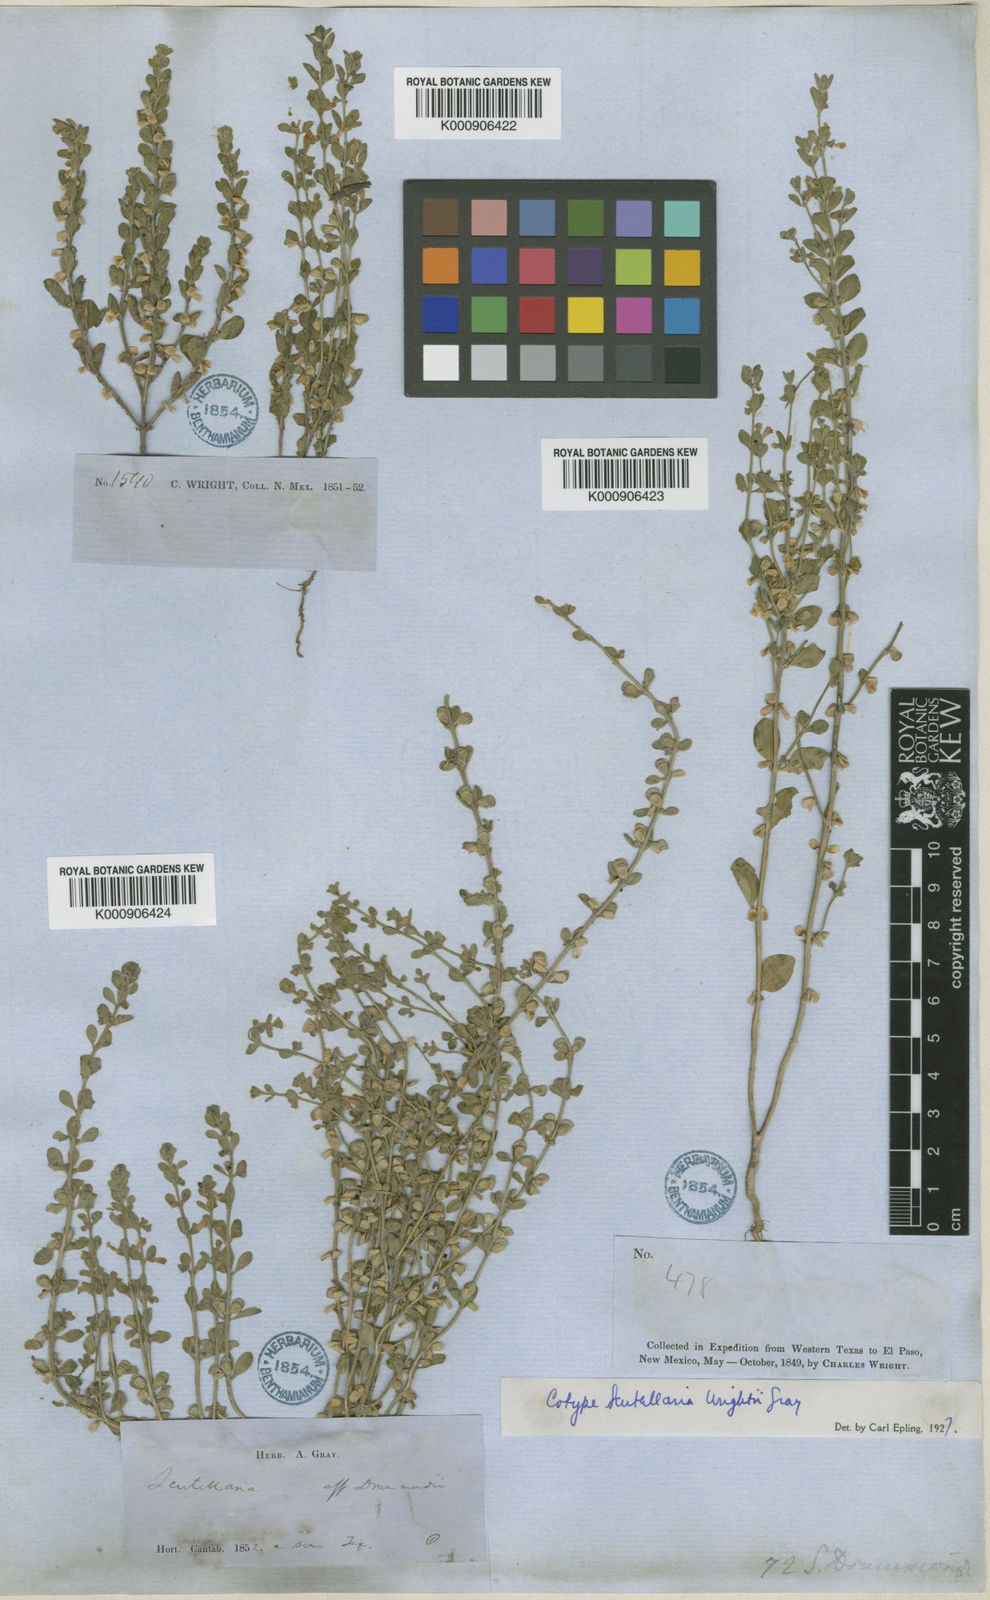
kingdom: Plantae
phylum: Tracheophyta
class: Magnoliopsida
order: Lamiales
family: Lamiaceae
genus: Scutellaria
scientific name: Scutellaria wrightii
